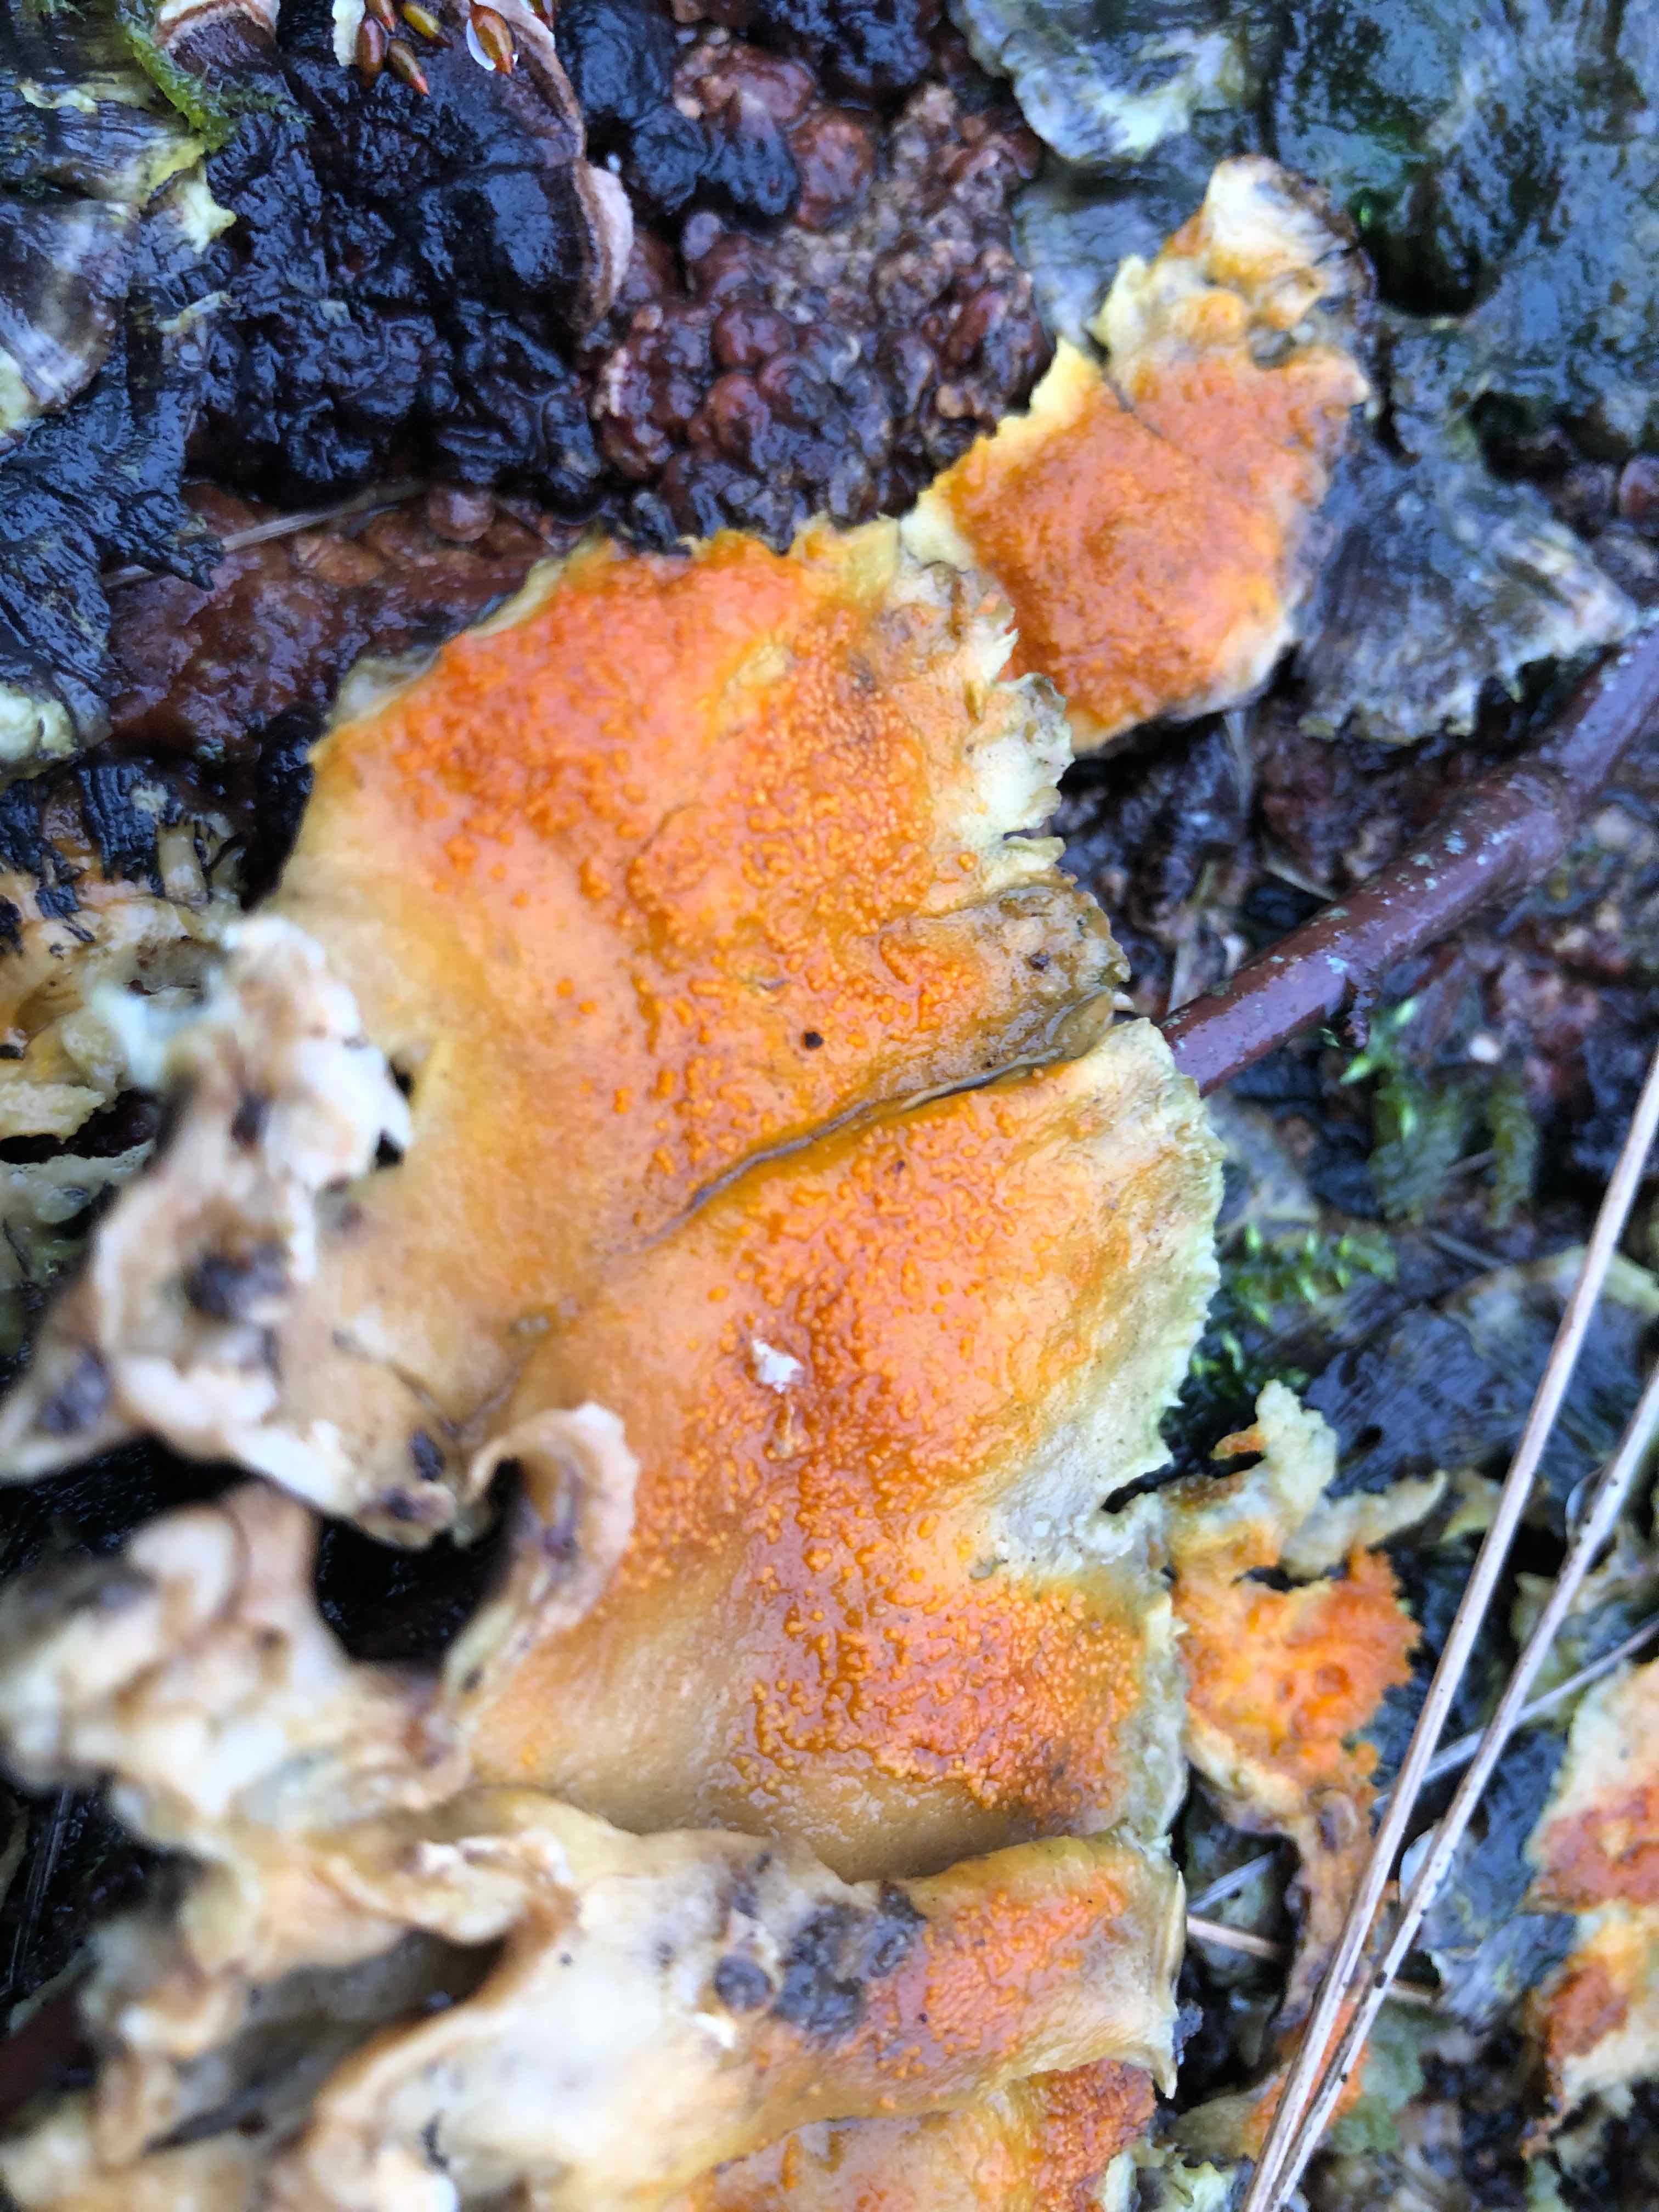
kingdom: Fungi
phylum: Ascomycota
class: Sordariomycetes
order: Hypocreales
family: Hypocreaceae
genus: Hypomyces
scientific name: Hypomyces aurantius
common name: almindelig snylteskorpe
